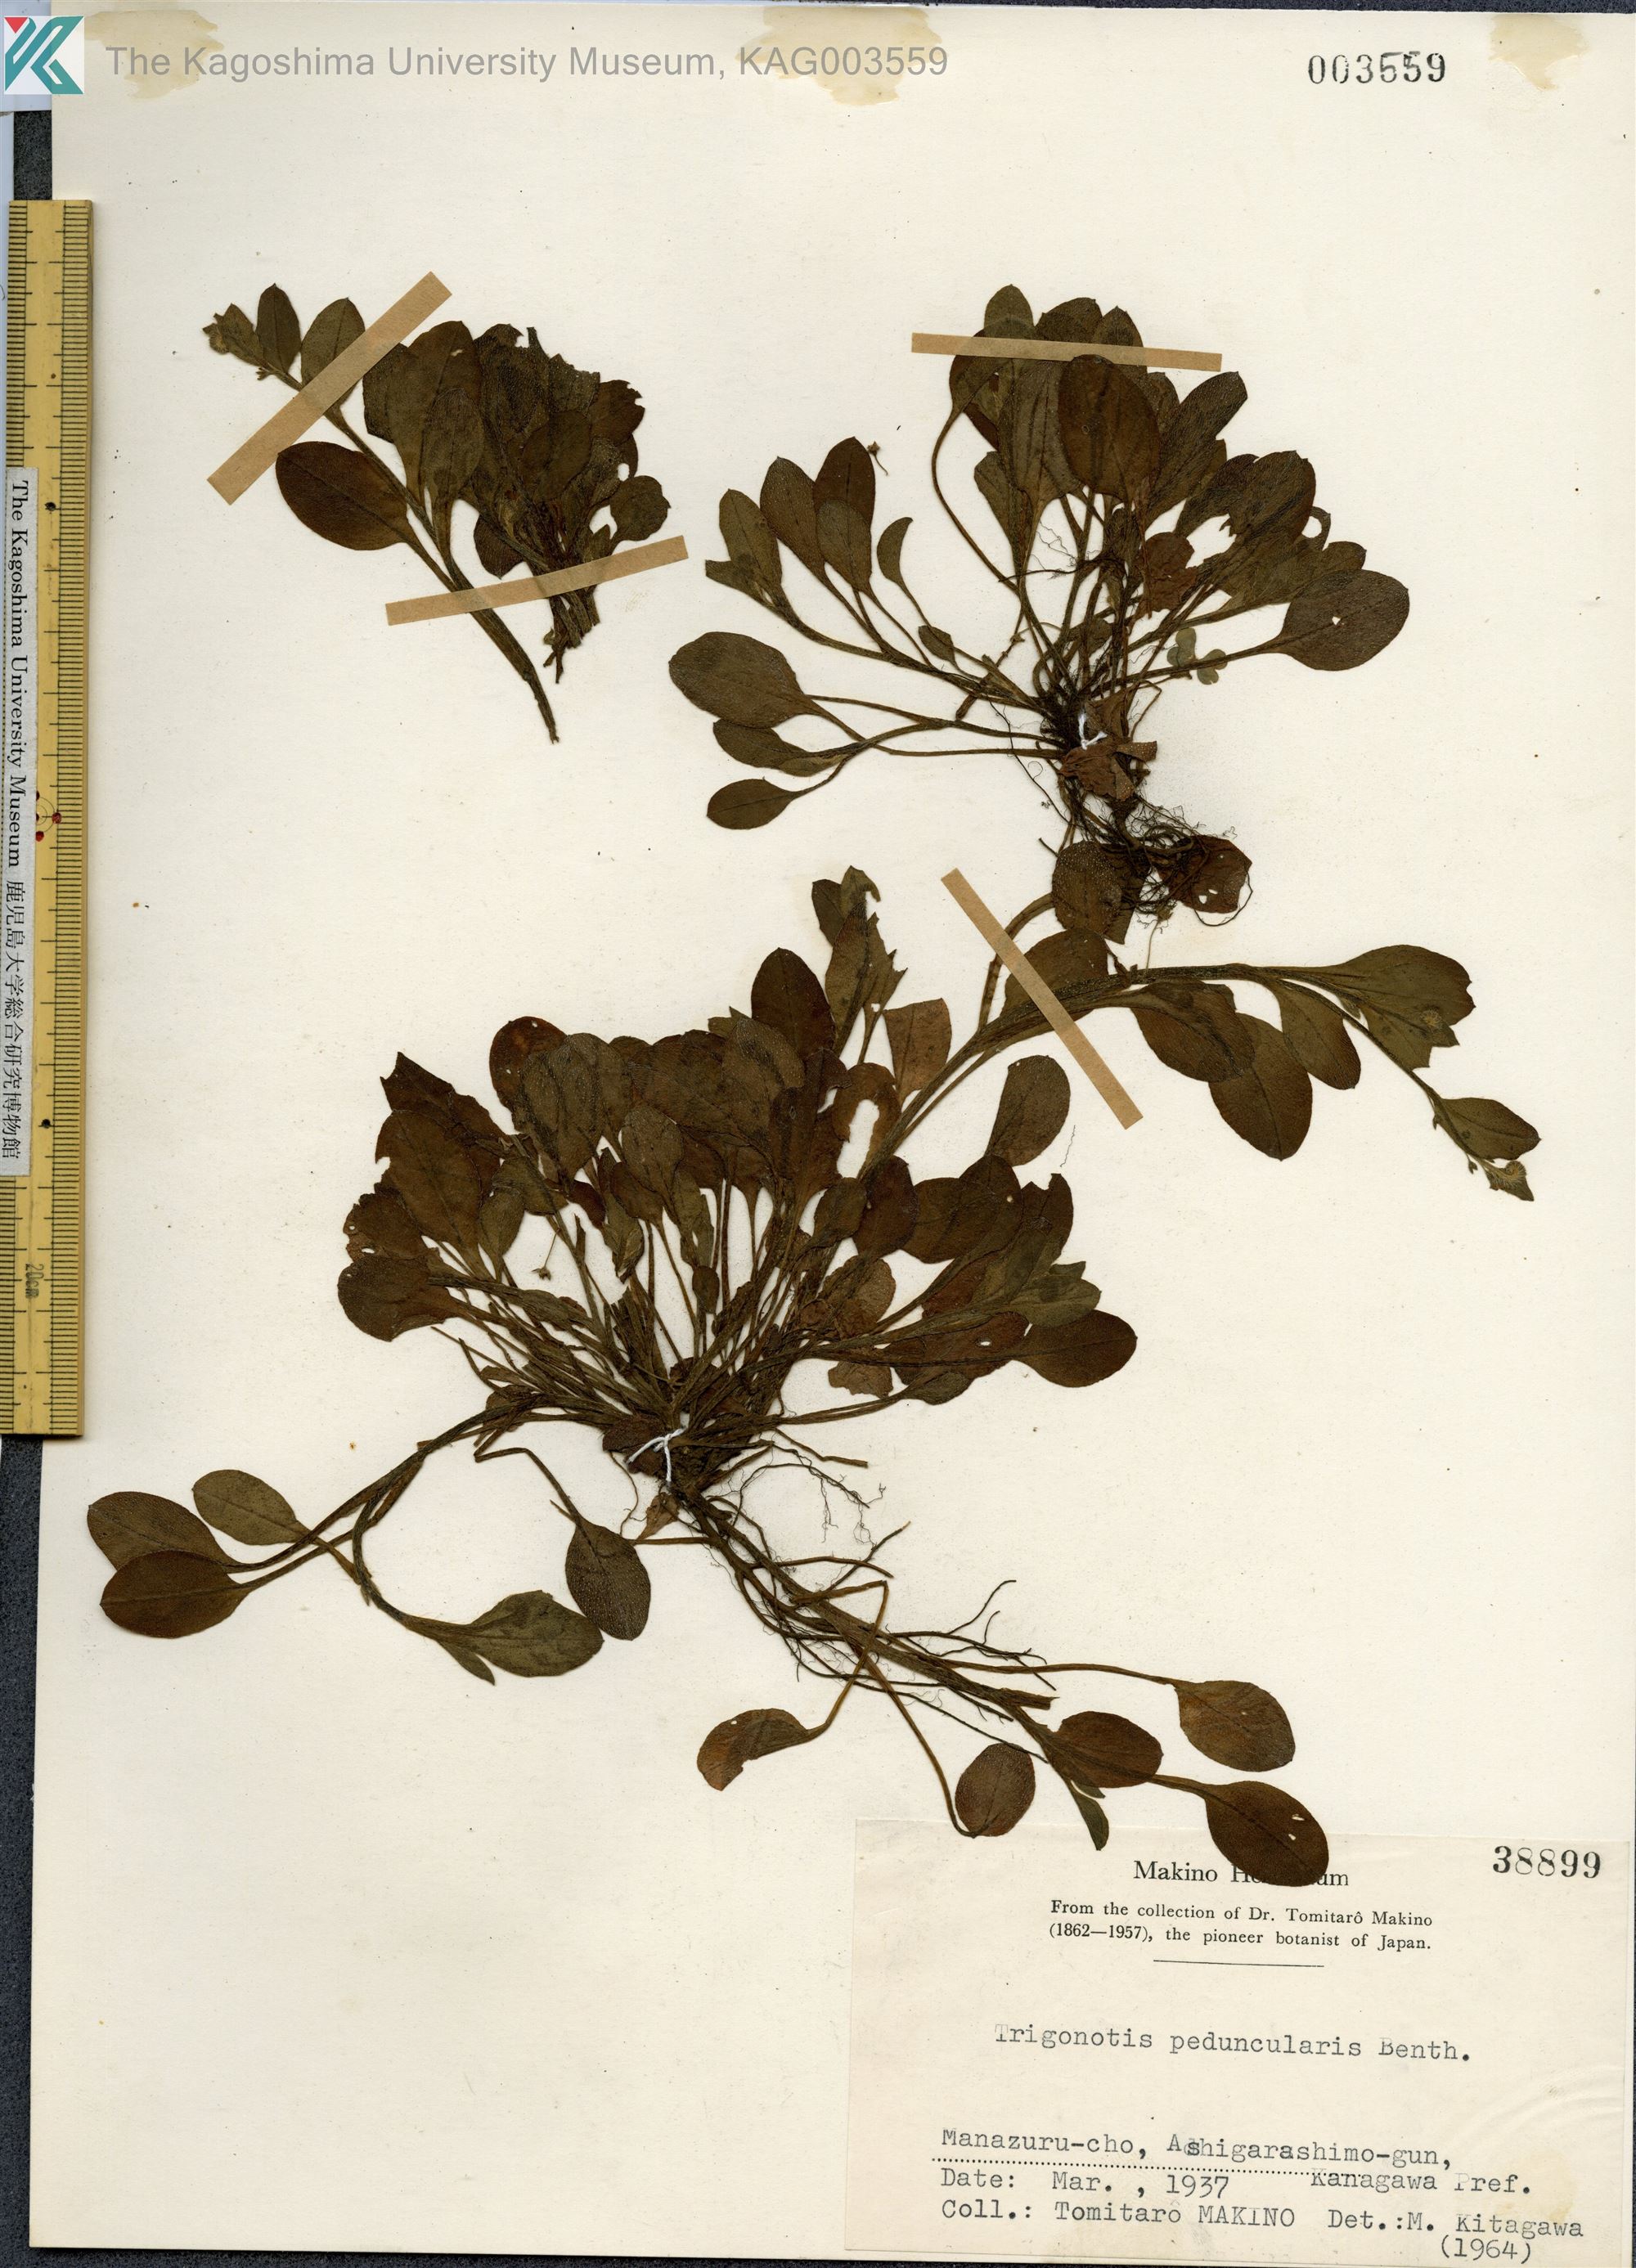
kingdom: Plantae
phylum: Tracheophyta
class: Magnoliopsida
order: Boraginales
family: Boraginaceae
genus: Trigonotis
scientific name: Trigonotis peduncularis
